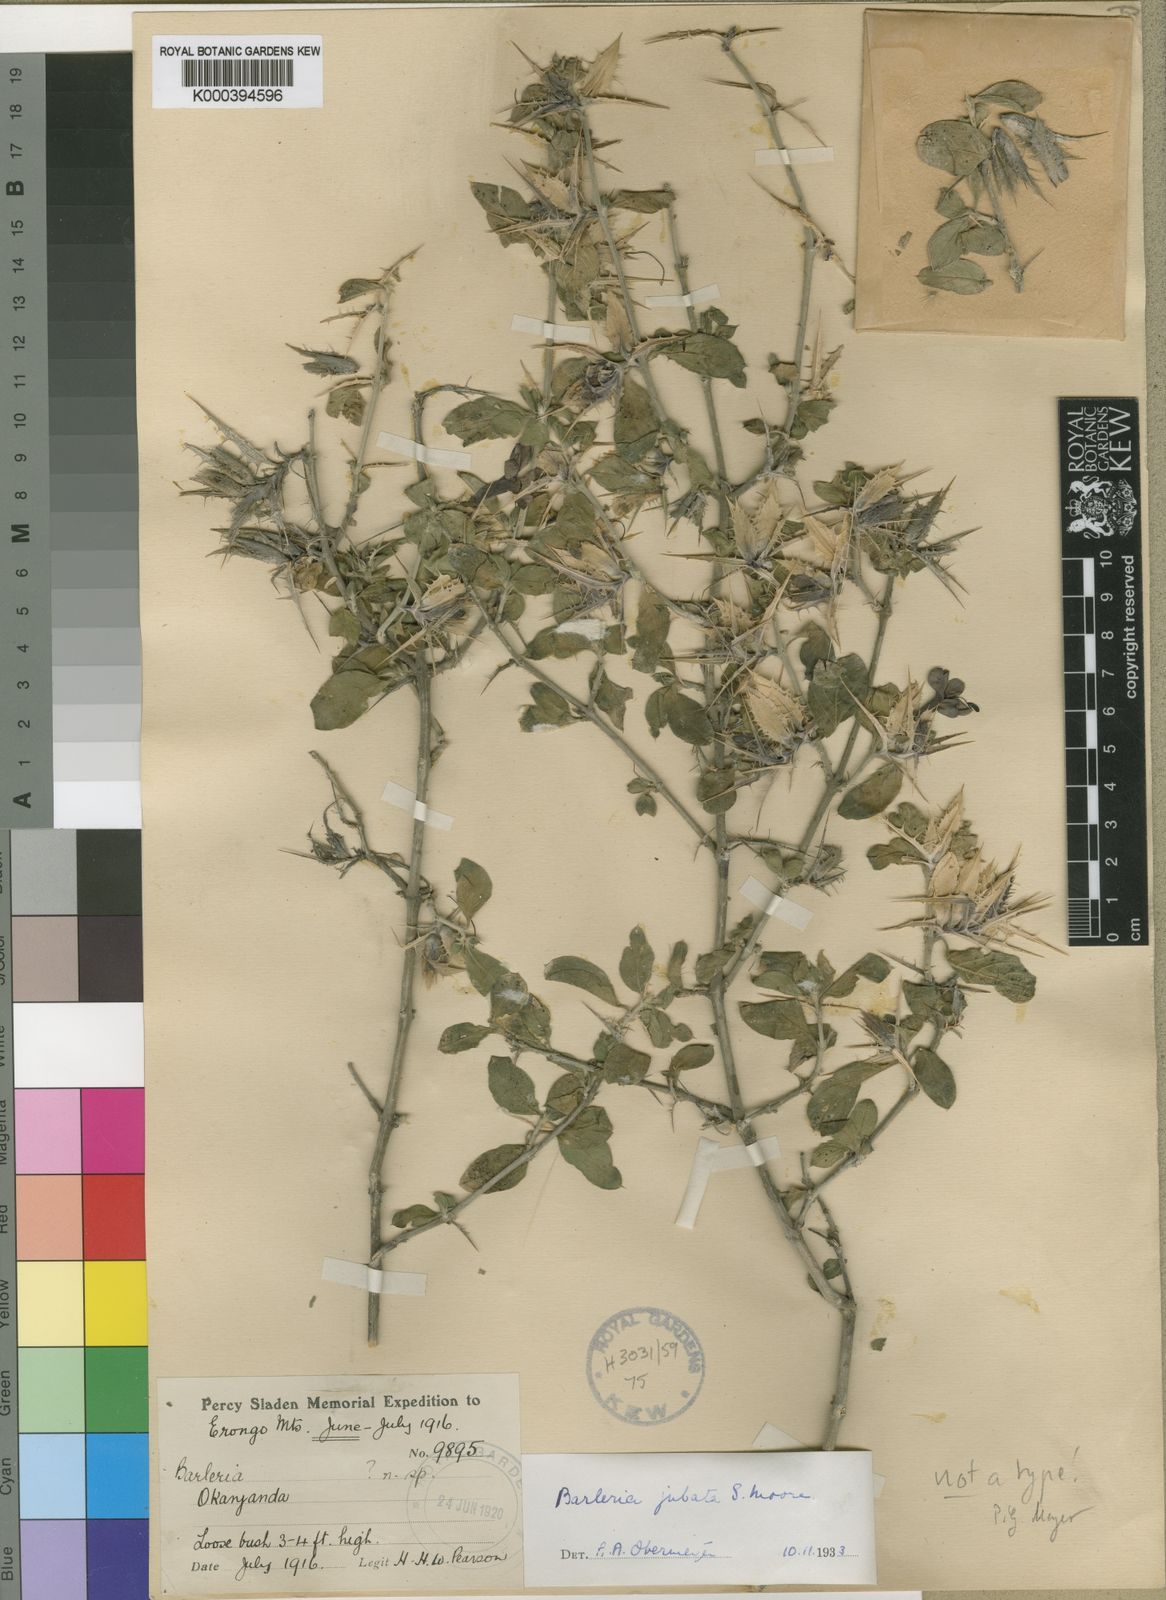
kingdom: Plantae
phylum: Tracheophyta
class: Magnoliopsida
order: Lamiales
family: Acanthaceae
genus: Barleria
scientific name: Barleria jubata
